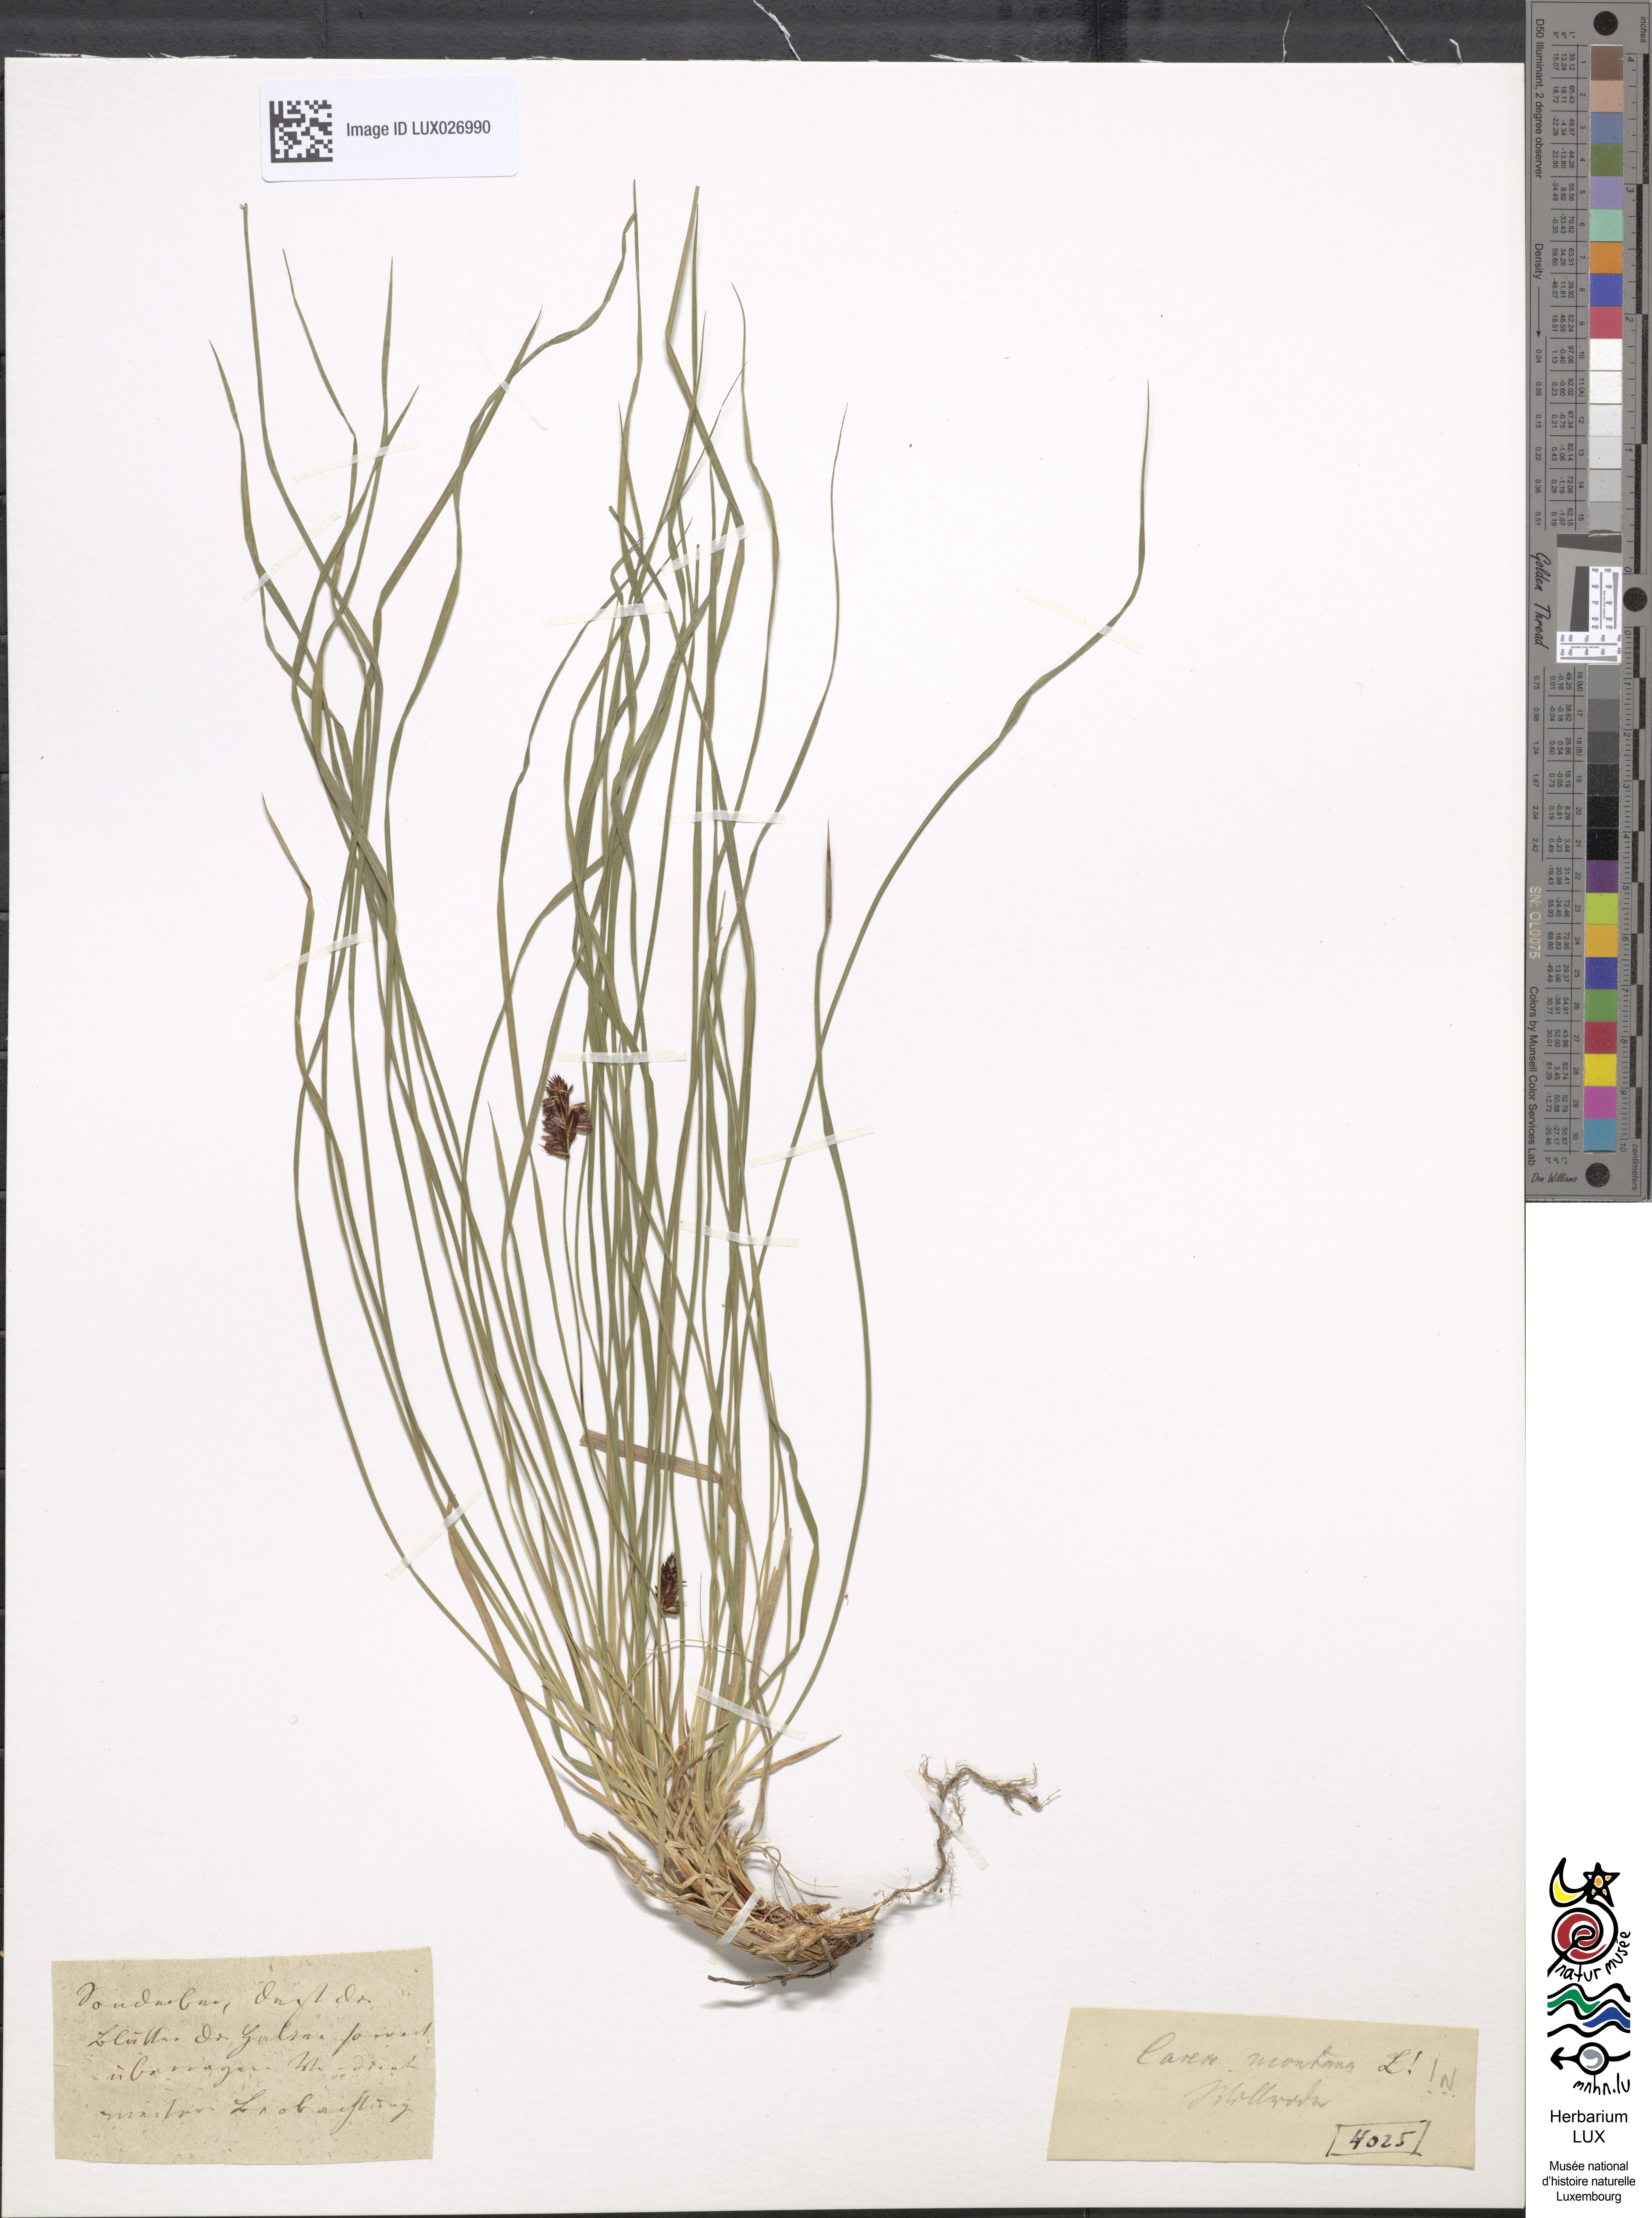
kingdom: Plantae
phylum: Tracheophyta
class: Liliopsida
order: Poales
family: Cyperaceae
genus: Carex
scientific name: Carex montana
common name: Soft-leaved sedge
